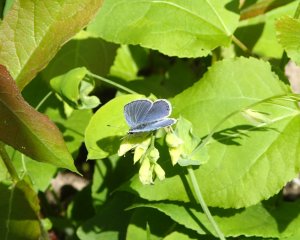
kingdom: Animalia
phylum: Arthropoda
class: Insecta
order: Lepidoptera
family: Lycaenidae
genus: Elkalyce
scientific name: Elkalyce amyntula
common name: Western Tailed-Blue
